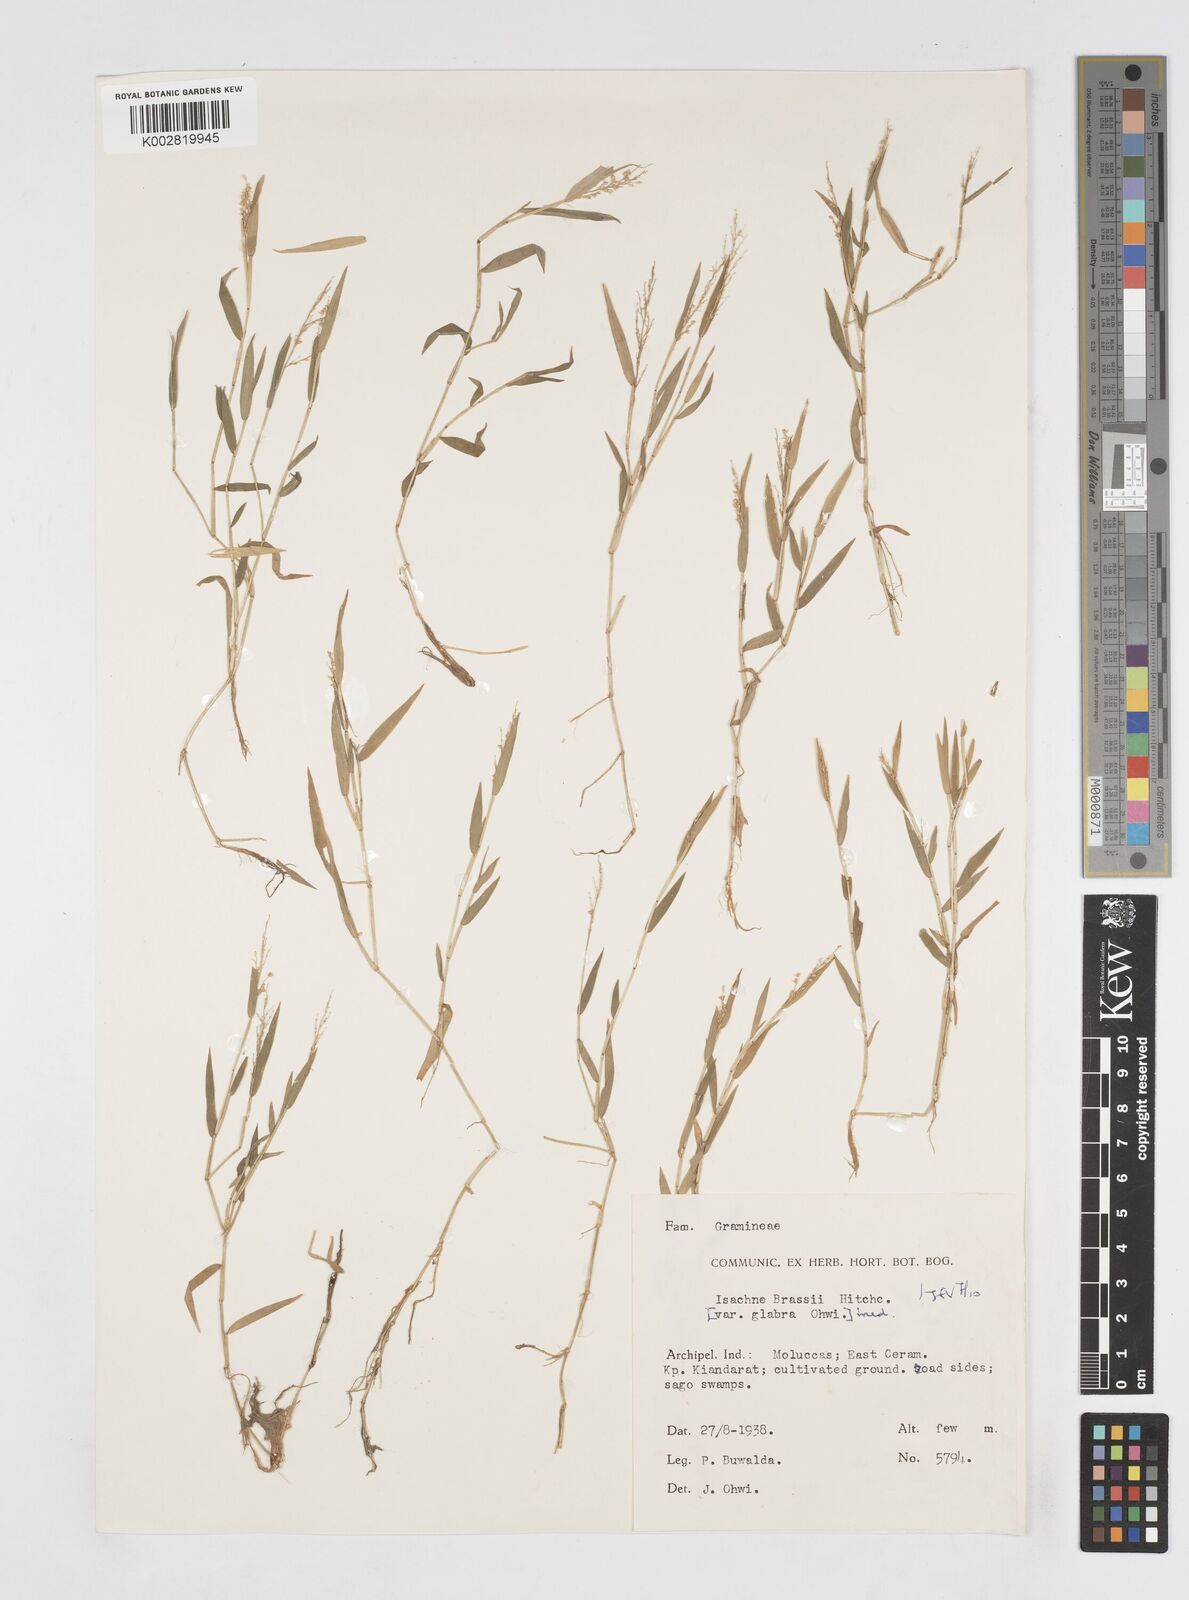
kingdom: Plantae
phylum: Tracheophyta
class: Liliopsida
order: Poales
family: Poaceae
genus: Isachne
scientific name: Isachne brassii
